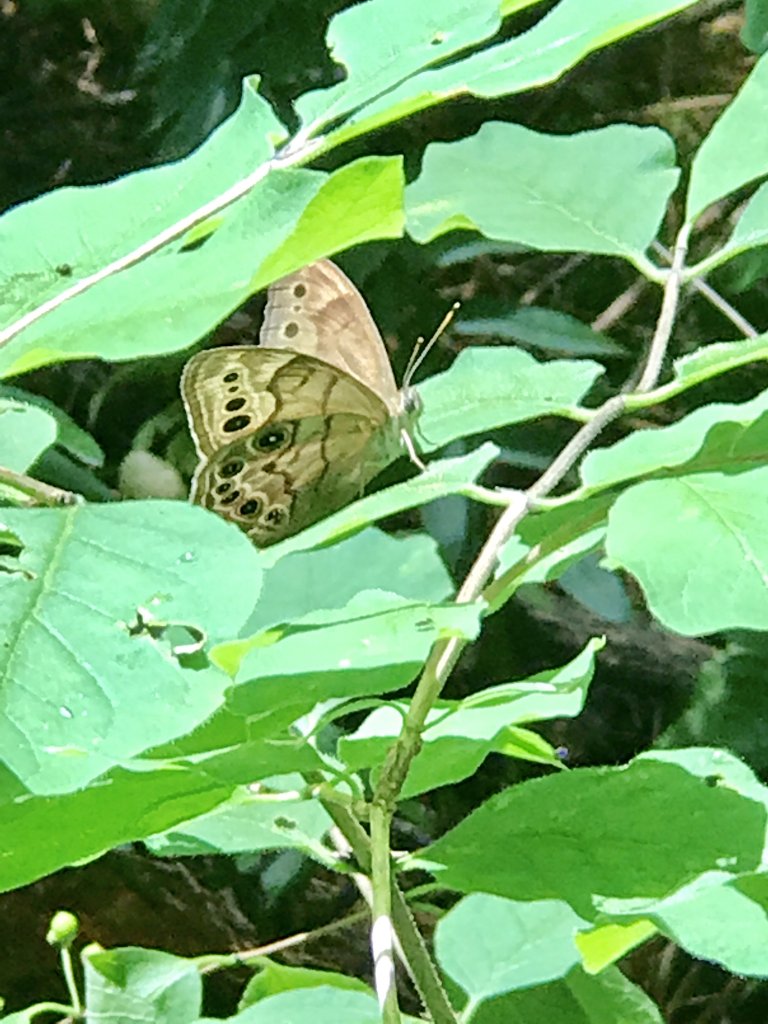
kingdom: Animalia
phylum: Arthropoda
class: Insecta
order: Lepidoptera
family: Nymphalidae
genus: Lethe
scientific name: Lethe anthedon
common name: Northern Pearly-Eye
